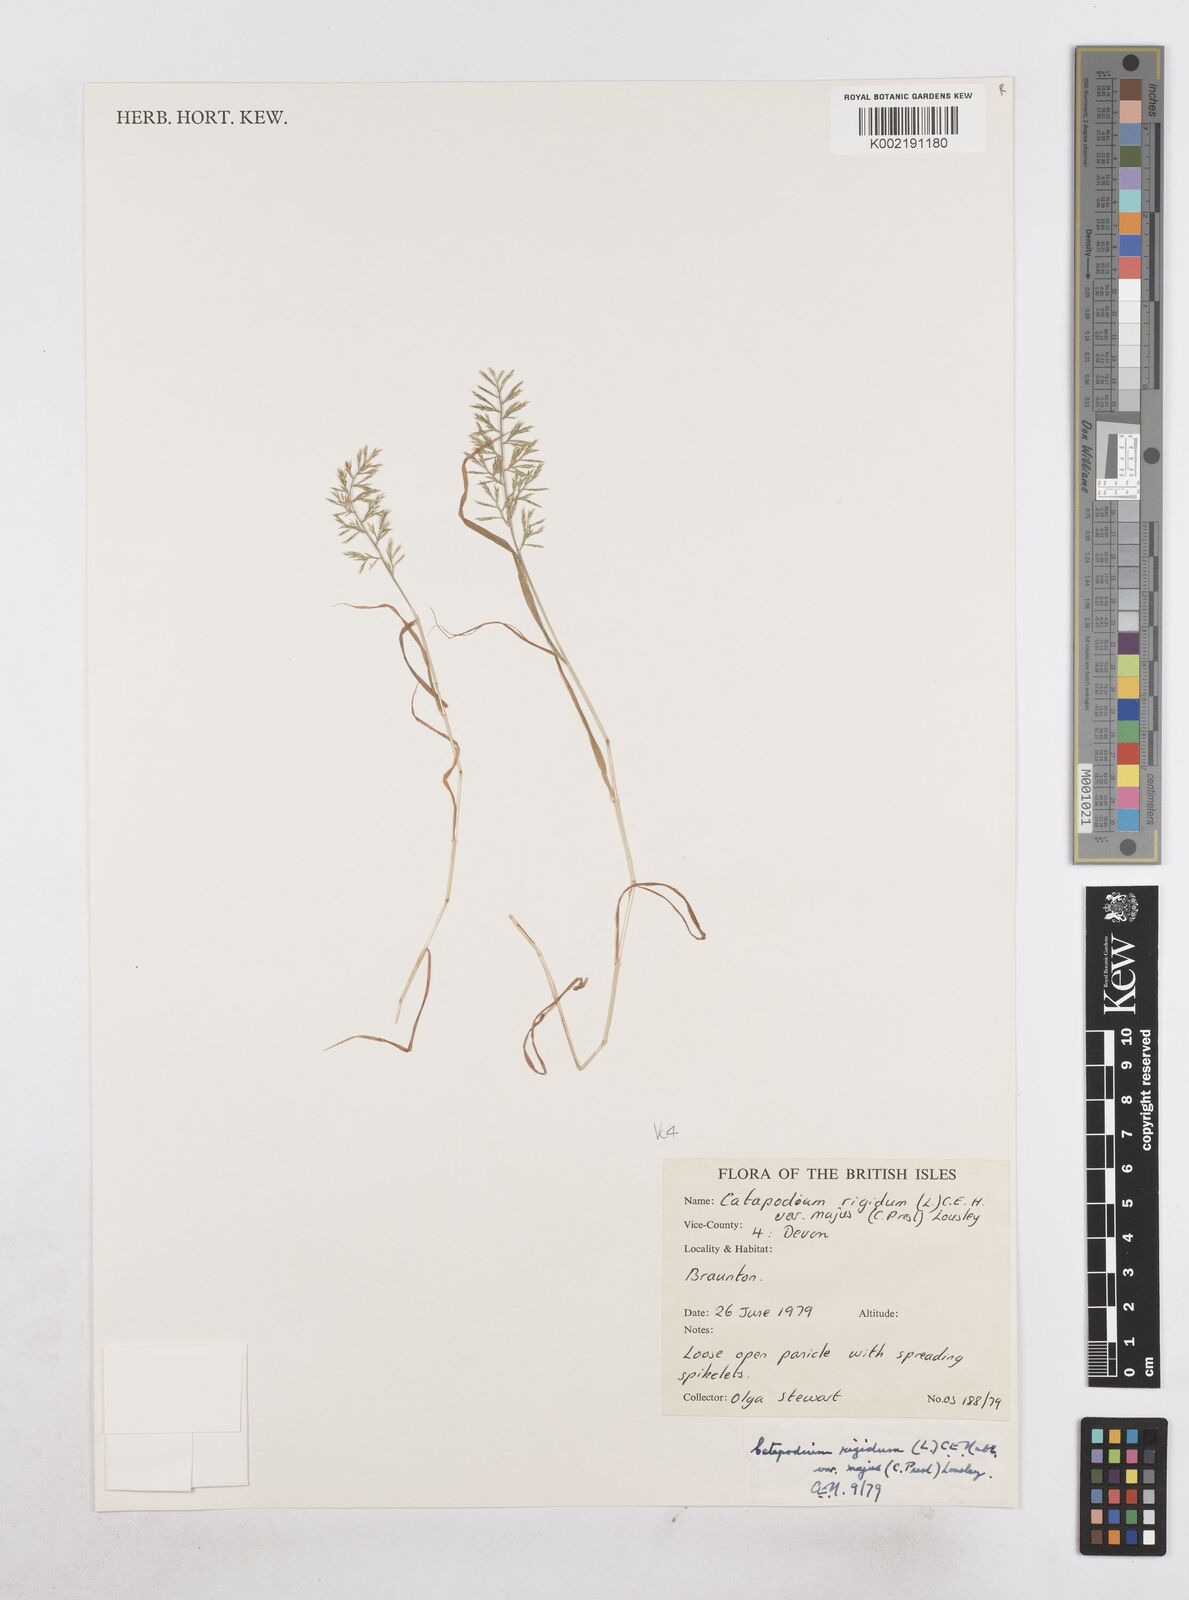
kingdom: Plantae
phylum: Tracheophyta
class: Liliopsida
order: Poales
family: Poaceae
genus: Catapodium
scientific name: Catapodium rigidum
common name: Fern-grass
